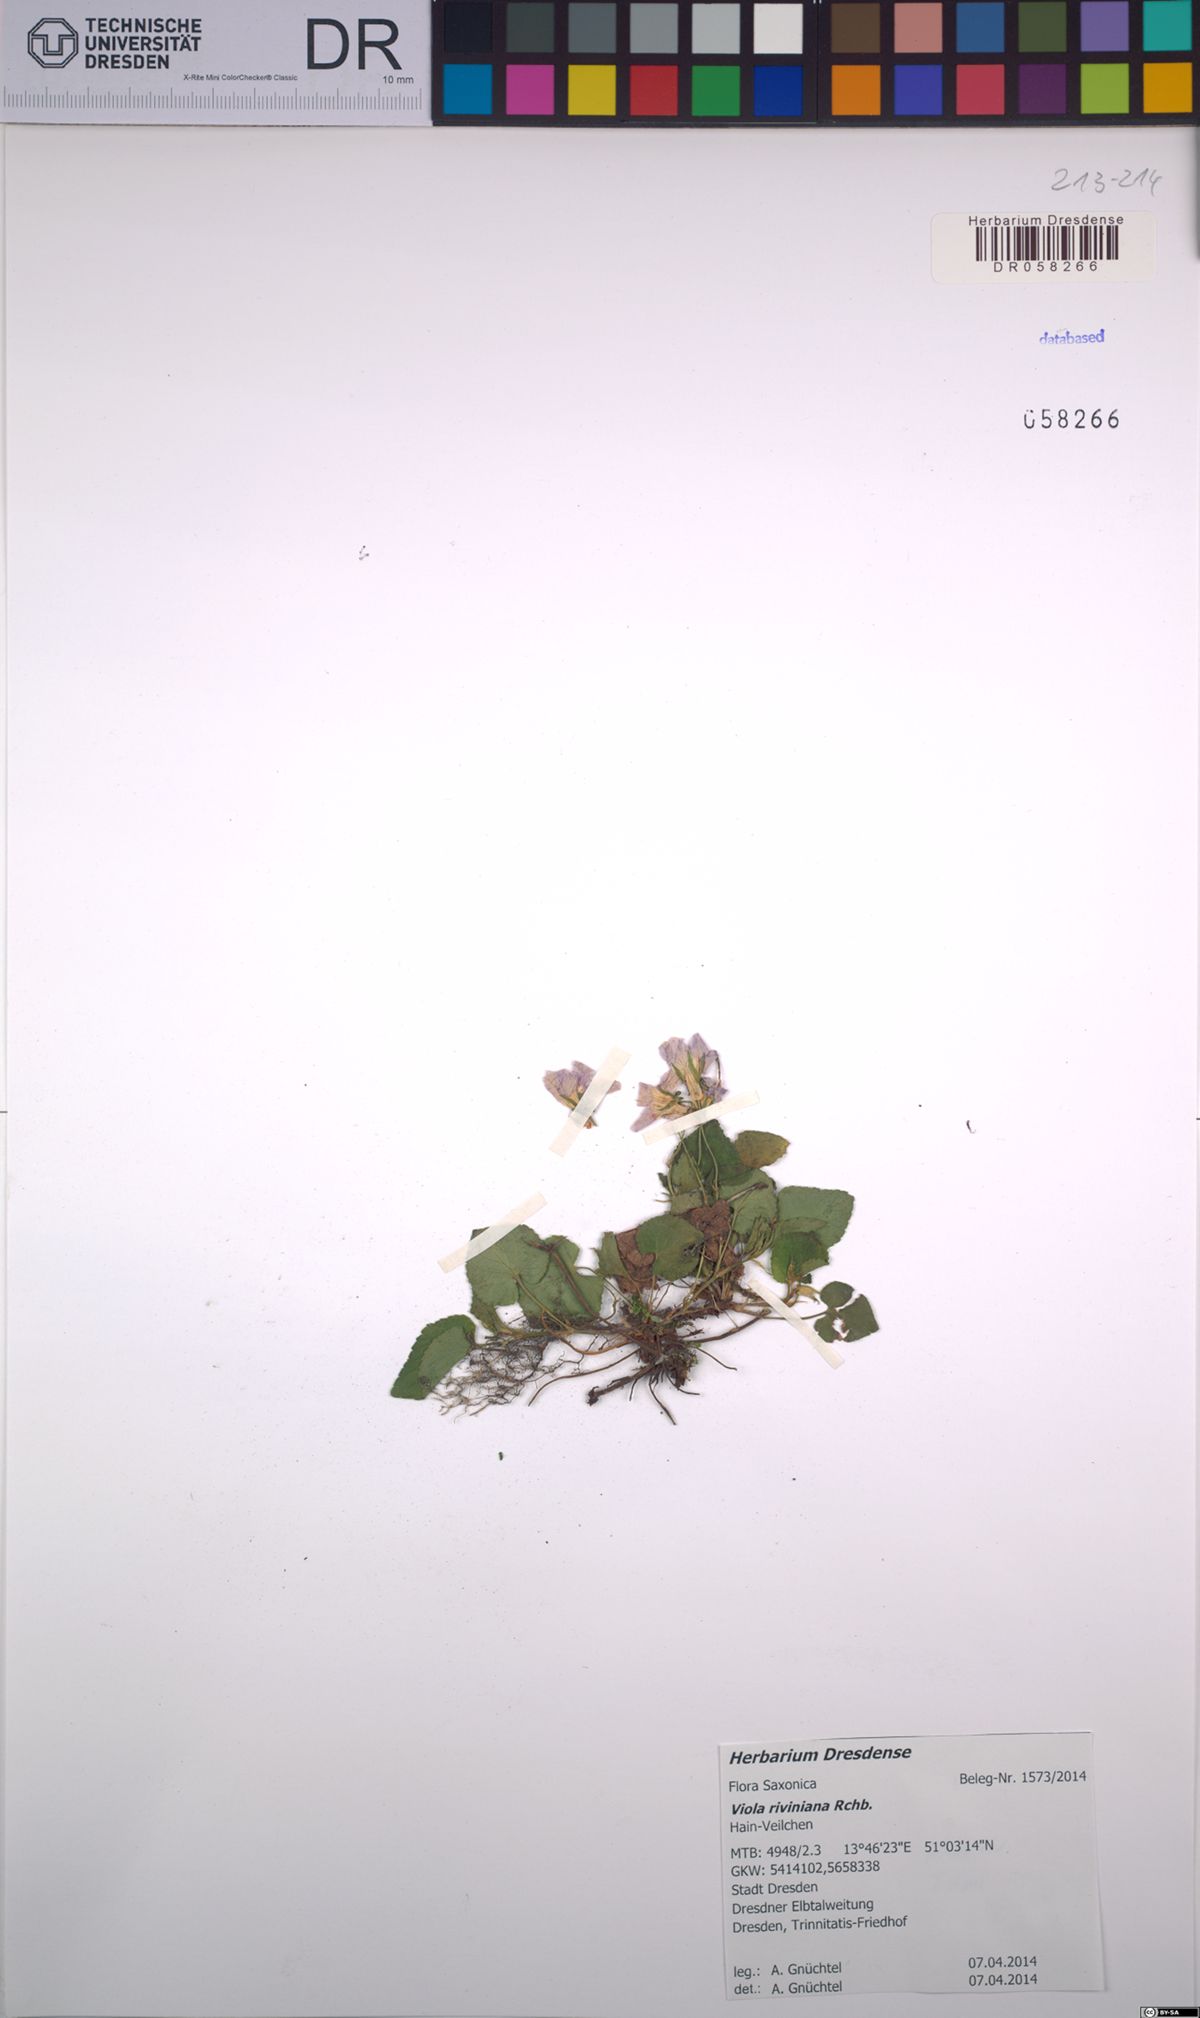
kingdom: Plantae
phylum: Tracheophyta
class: Magnoliopsida
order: Malpighiales
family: Violaceae
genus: Viola
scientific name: Viola riviniana
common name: Common dog-violet
